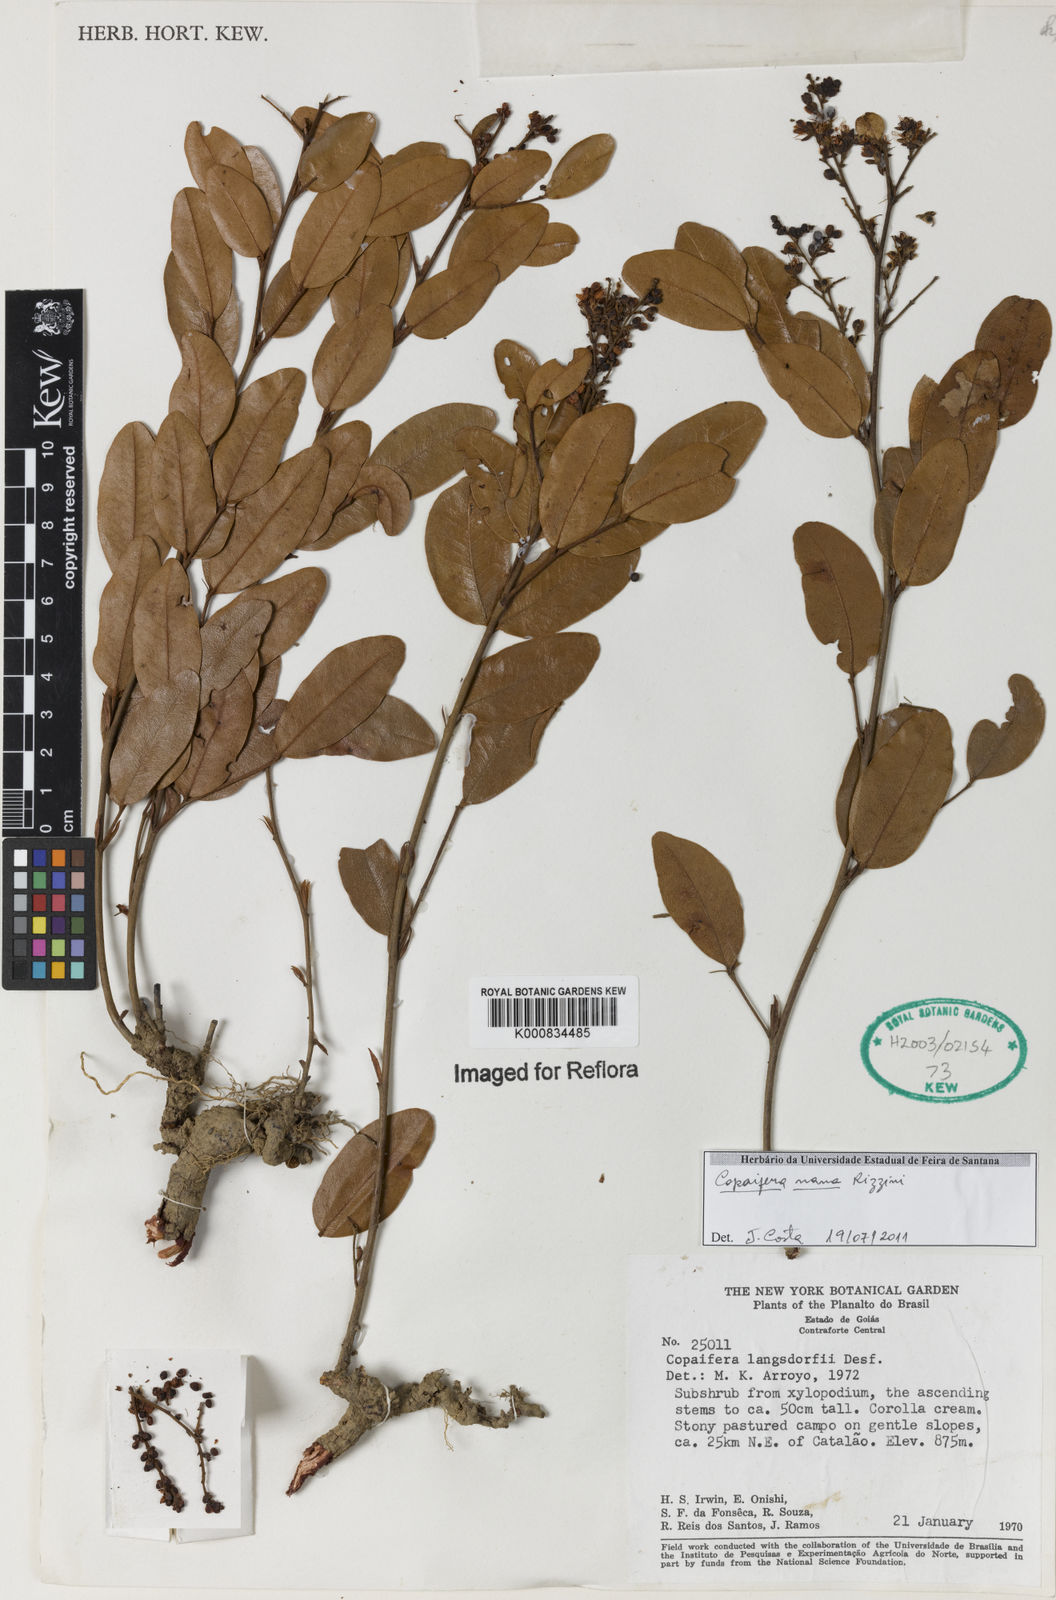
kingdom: Plantae
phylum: Tracheophyta
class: Magnoliopsida
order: Fabales
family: Fabaceae
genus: Copaifera
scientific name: Copaifera nana
